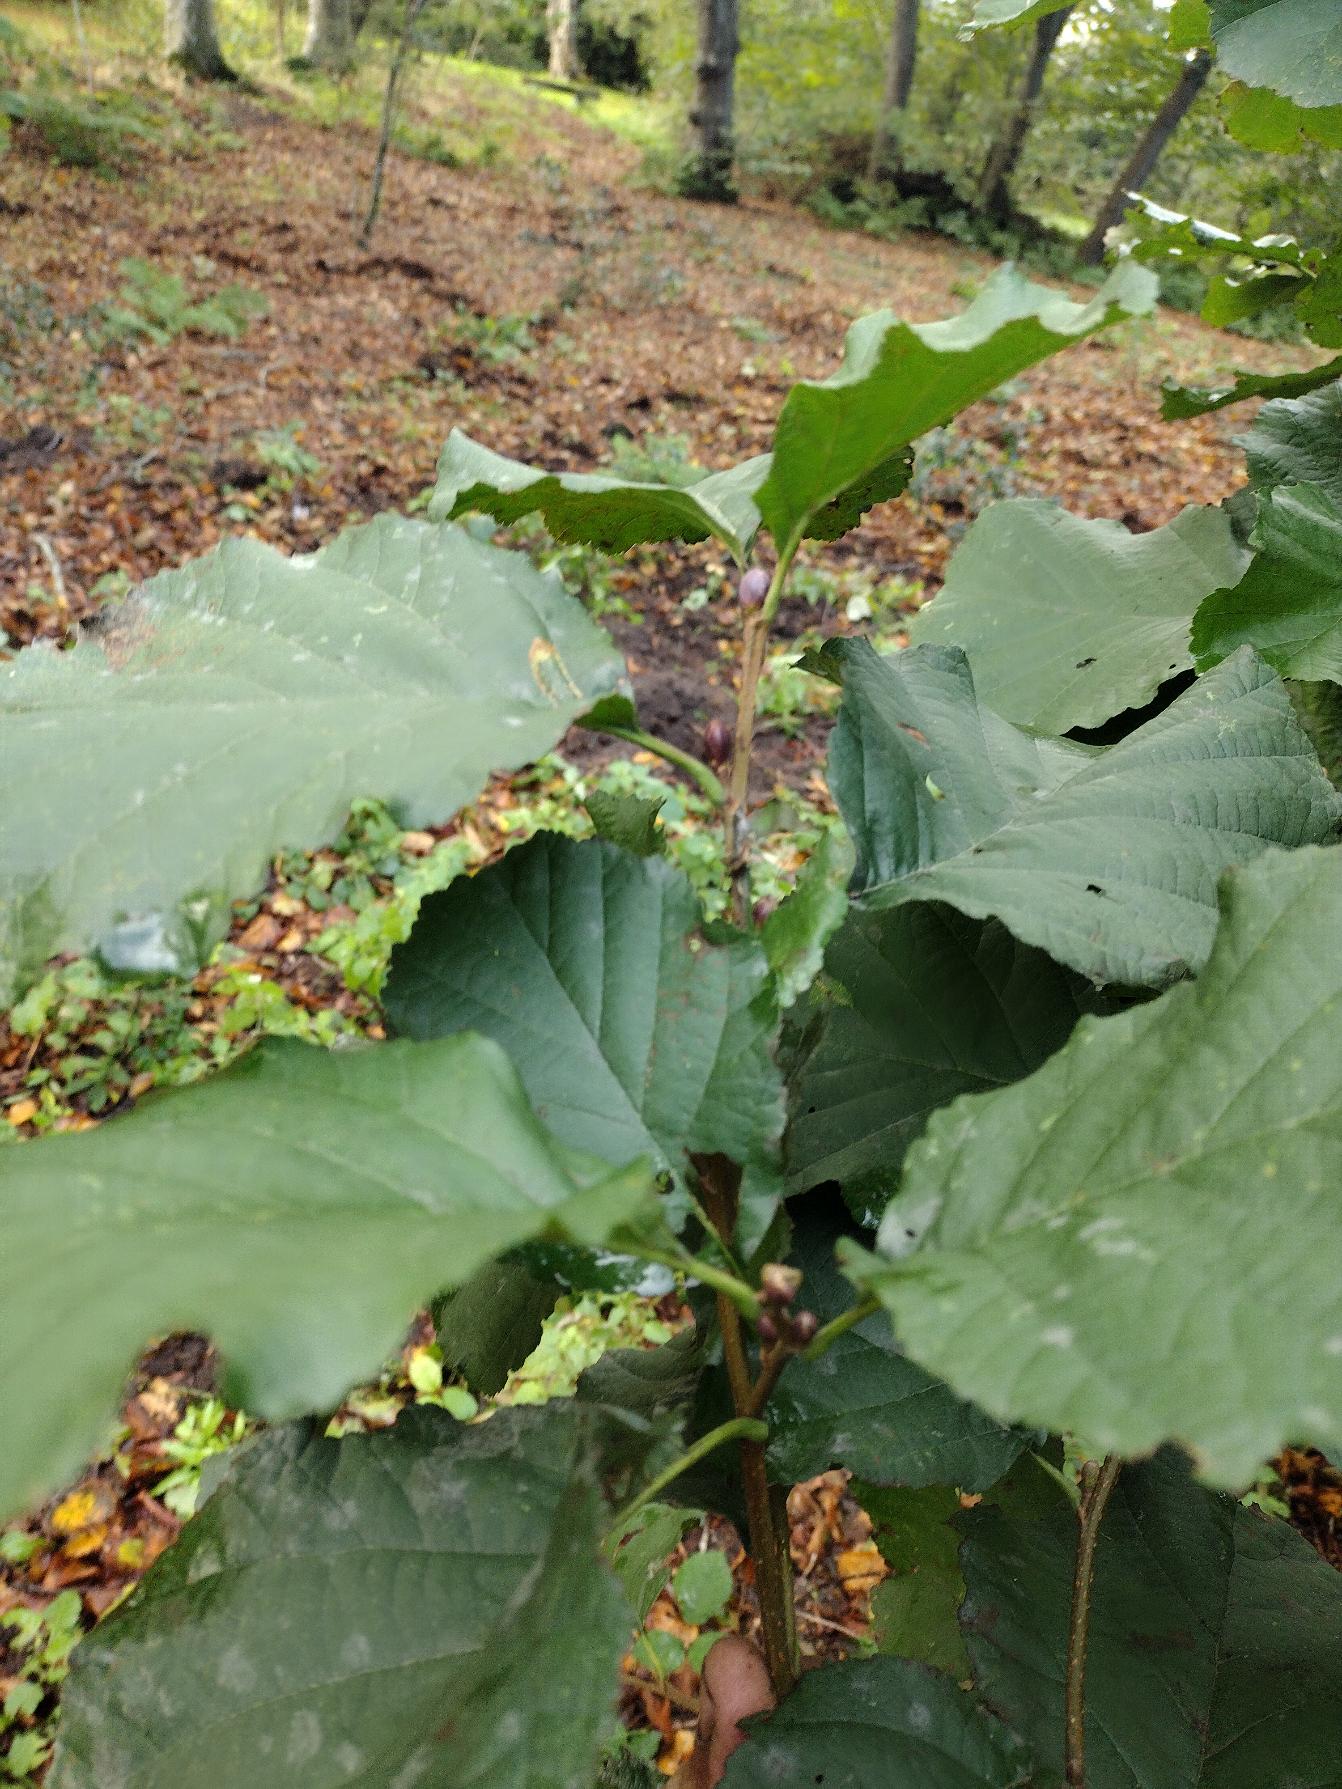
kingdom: Plantae
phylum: Tracheophyta
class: Magnoliopsida
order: Fagales
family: Betulaceae
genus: Alnus
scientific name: Alnus glutinosa
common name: Rød-el
